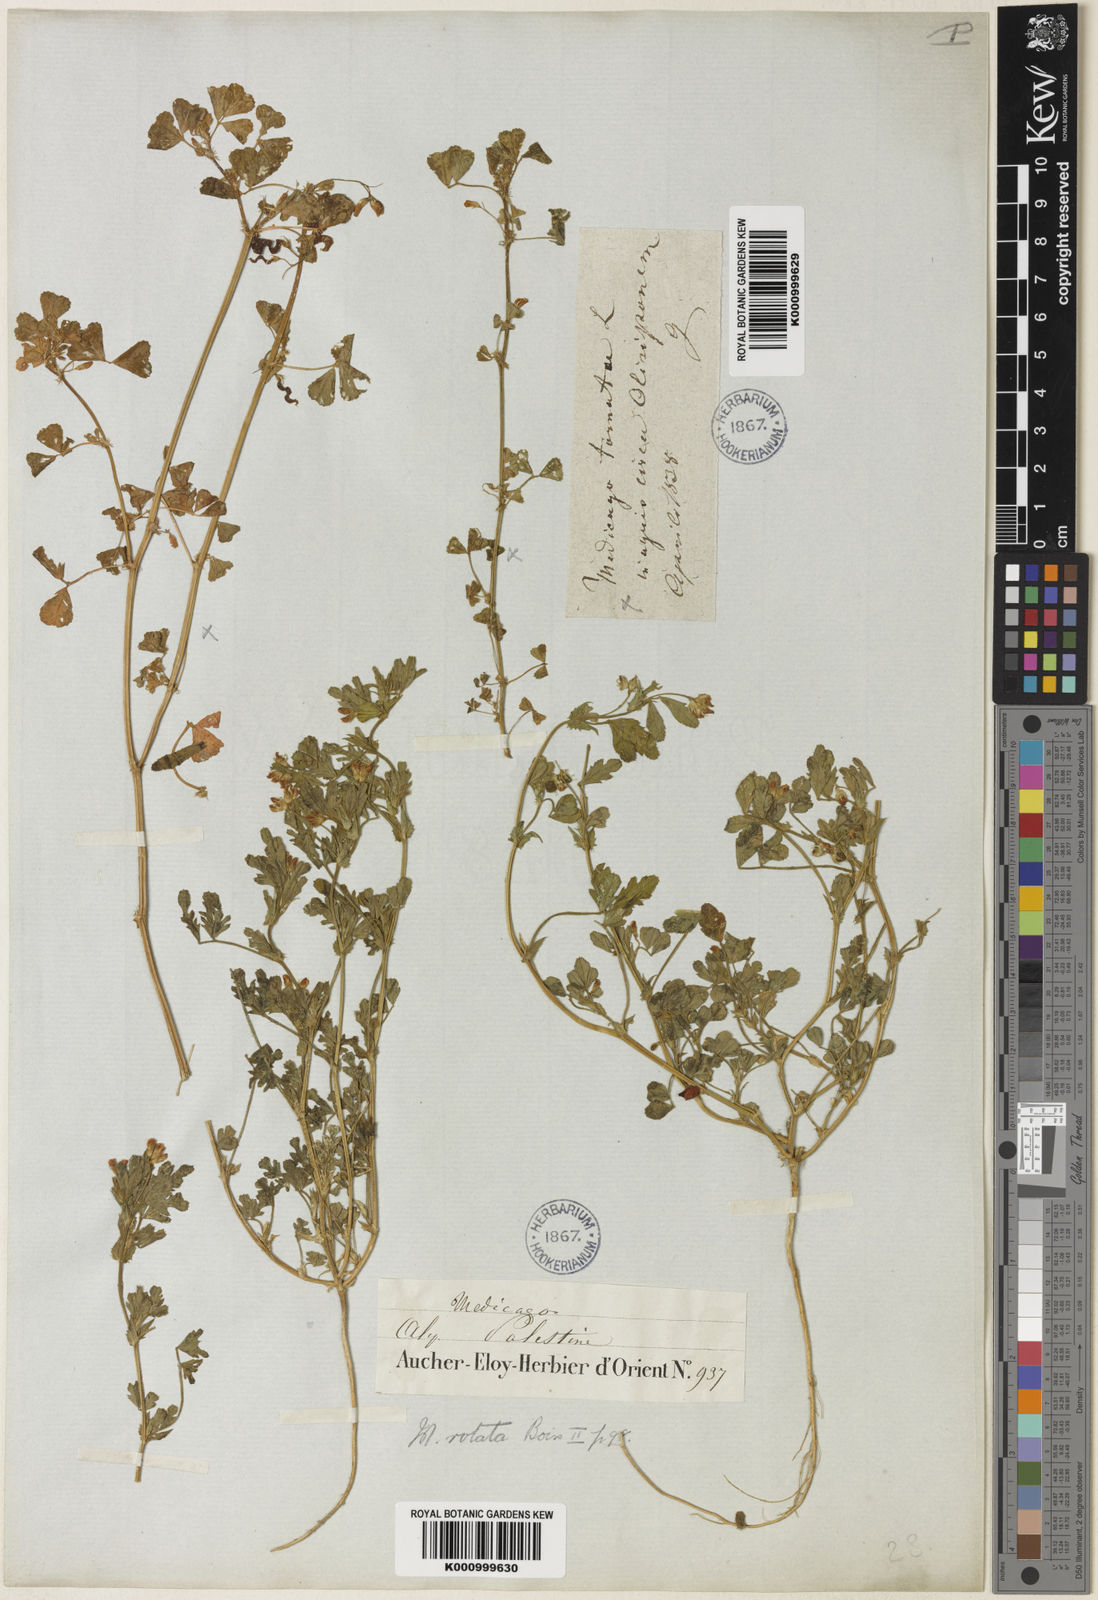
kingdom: Plantae
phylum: Tracheophyta
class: Magnoliopsida
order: Fabales
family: Fabaceae
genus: Medicago
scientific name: Medicago rotata
